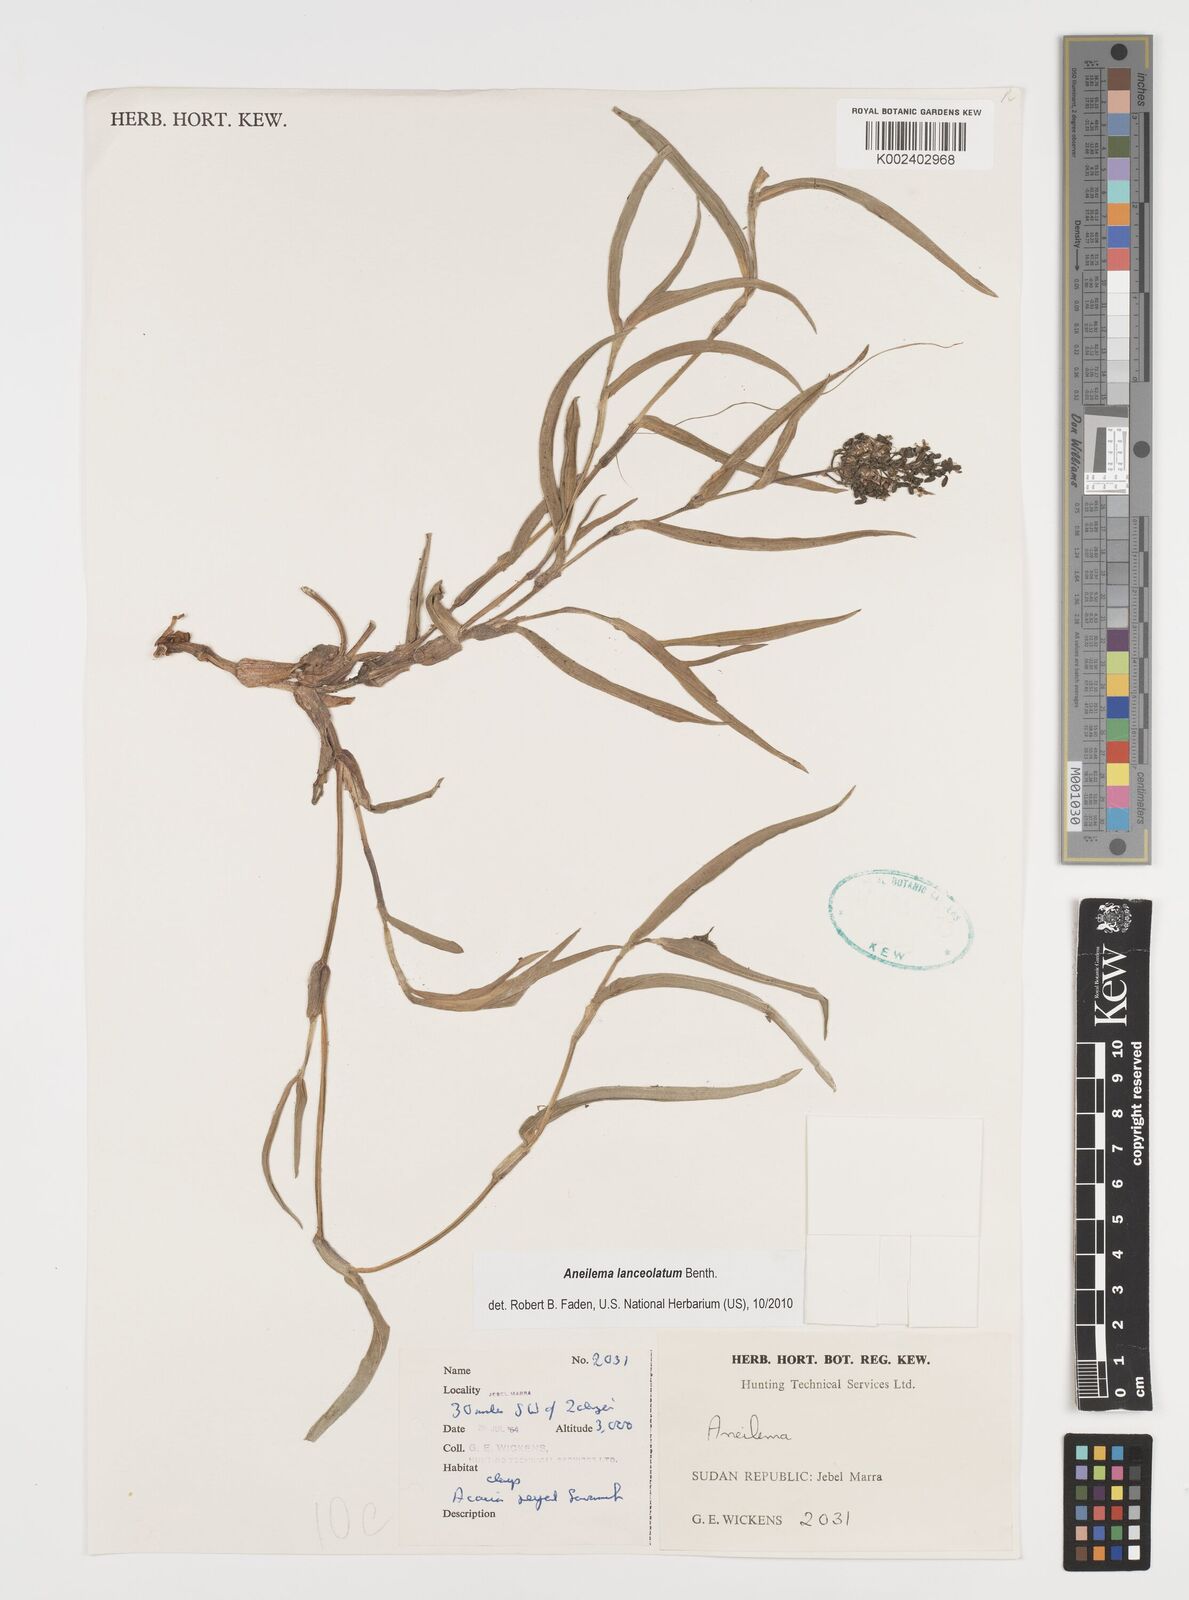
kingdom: Plantae
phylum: Tracheophyta
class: Liliopsida
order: Commelinales
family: Commelinaceae
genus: Aneilema
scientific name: Aneilema lanceolatum
